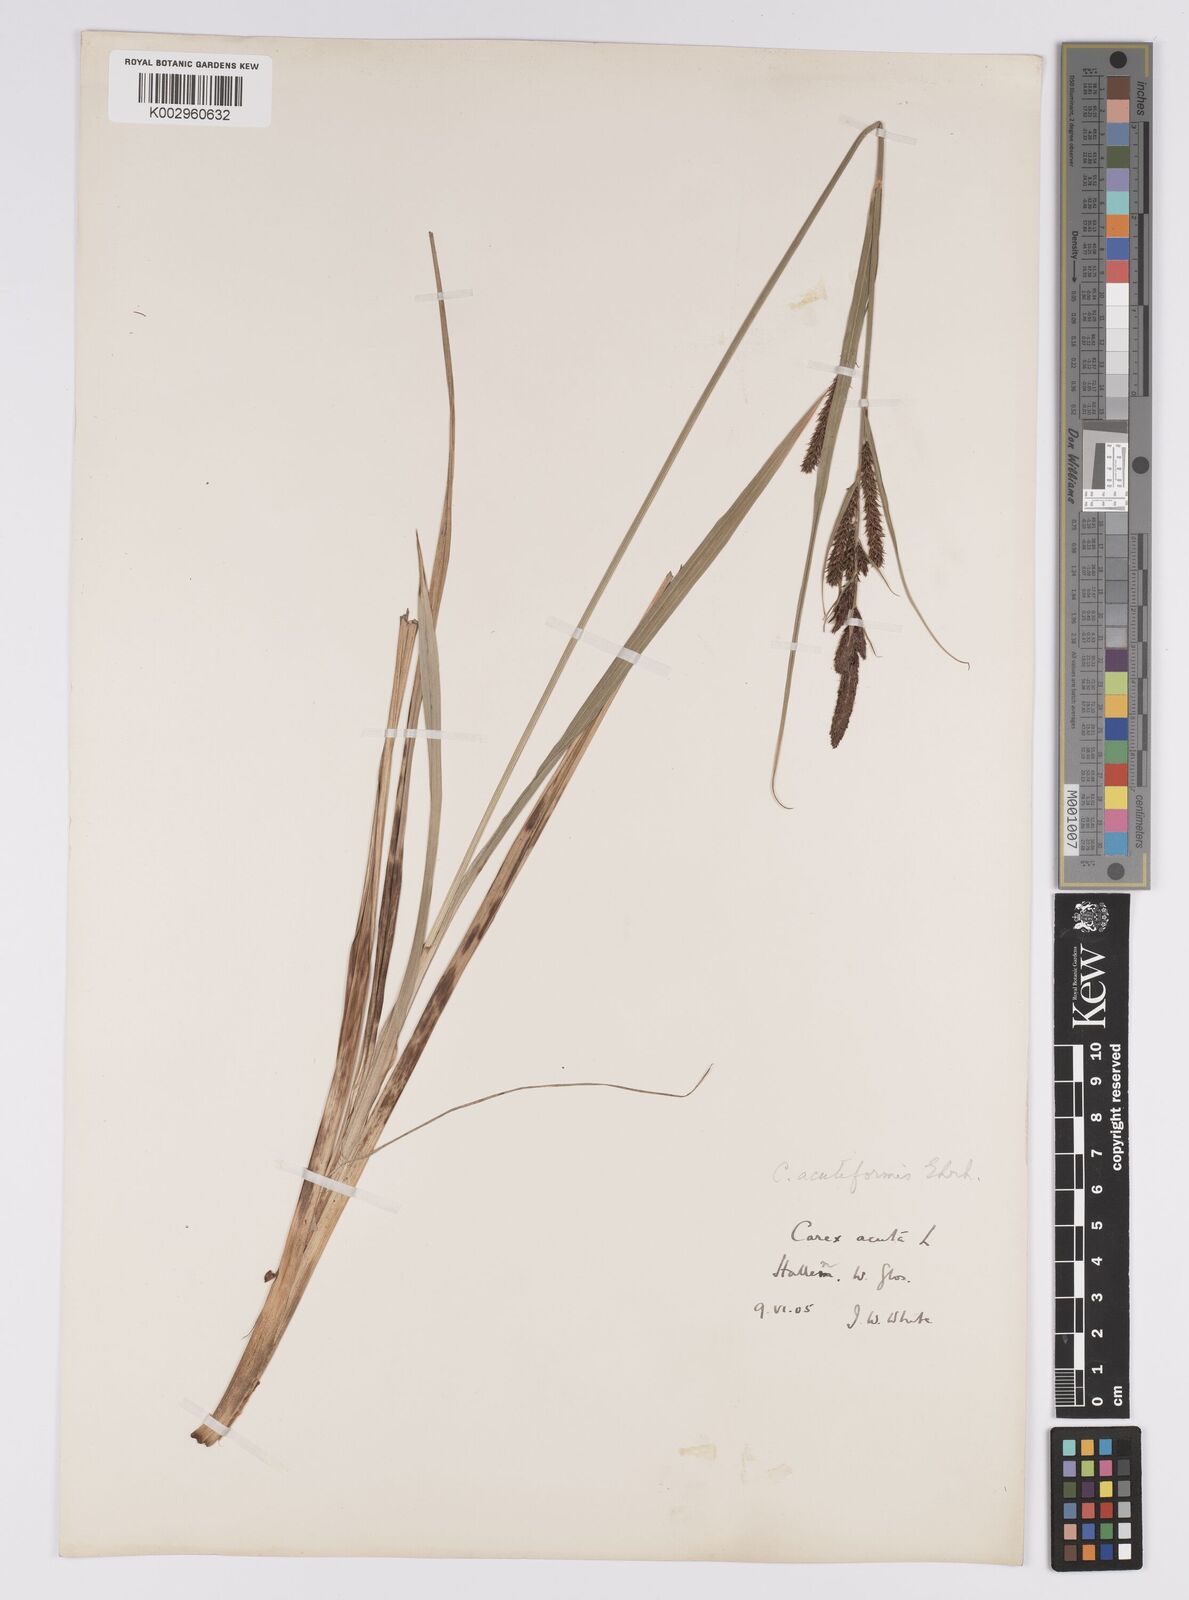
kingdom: Plantae
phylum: Tracheophyta
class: Liliopsida
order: Poales
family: Cyperaceae
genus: Carex
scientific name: Carex acutiformis
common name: Lesser pond-sedge
